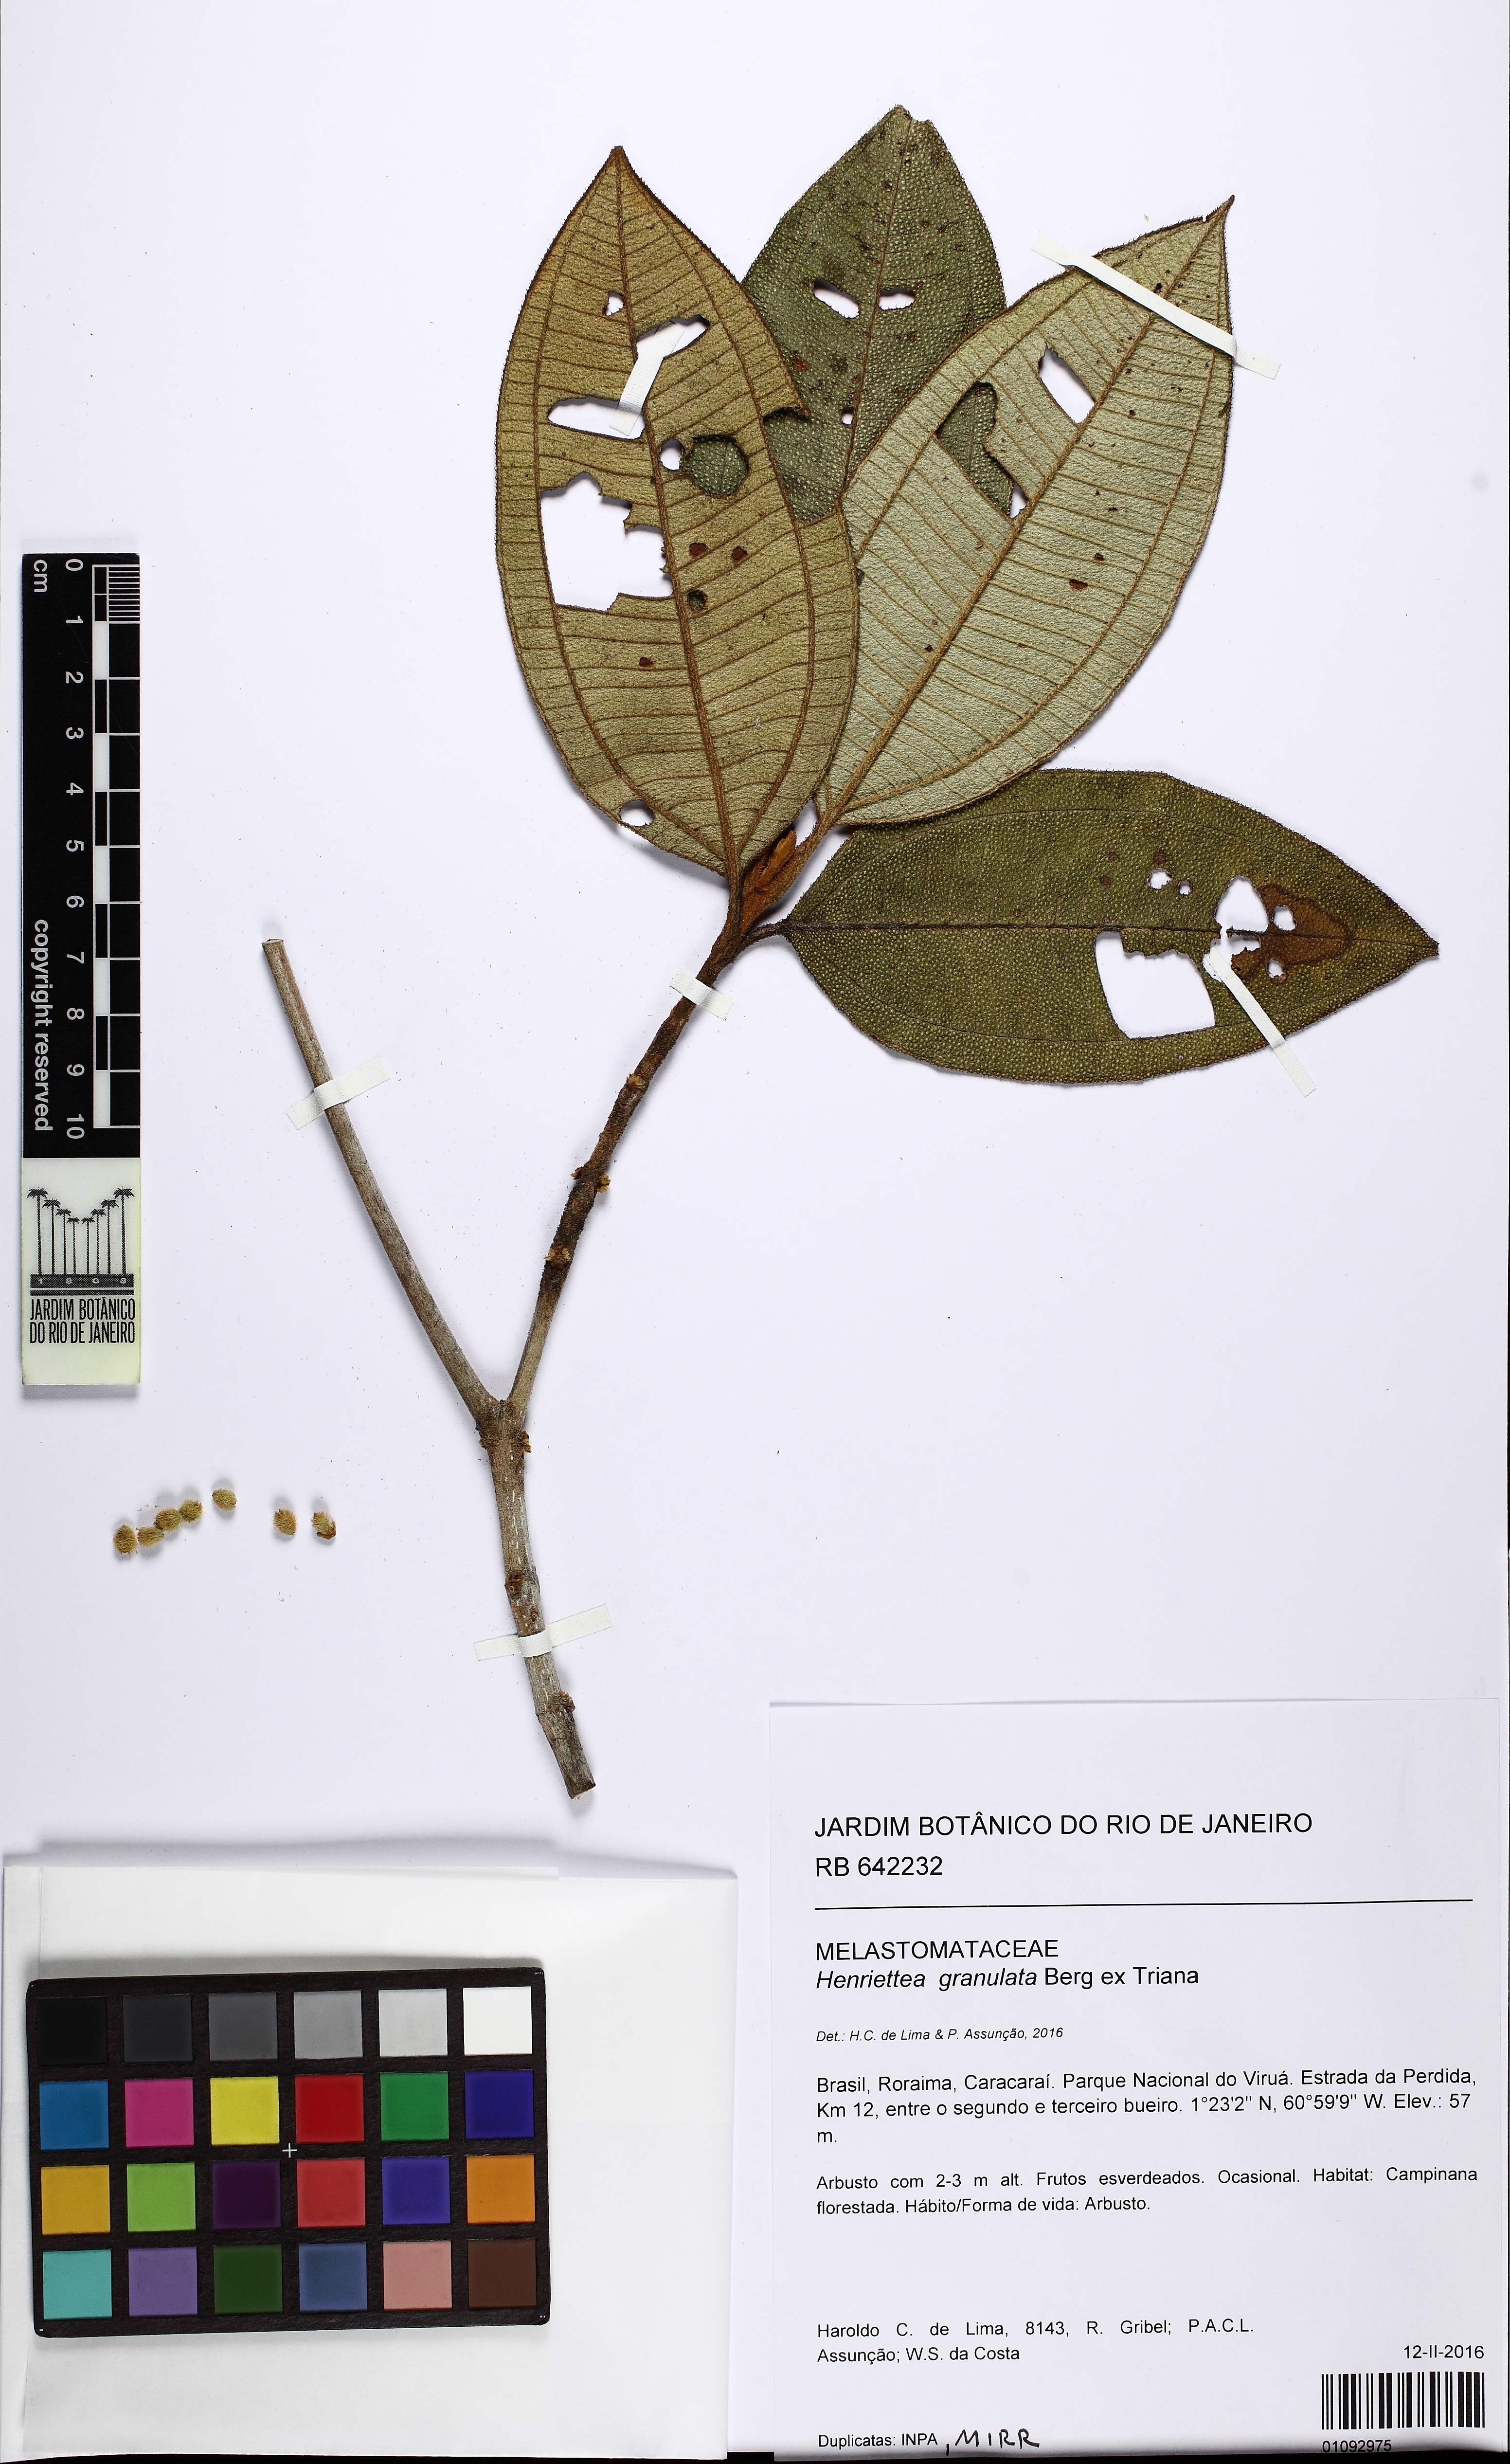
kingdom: Plantae
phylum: Tracheophyta
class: Magnoliopsida
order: Myrtales
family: Melastomataceae
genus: Henriettea
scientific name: Henriettea granulata
